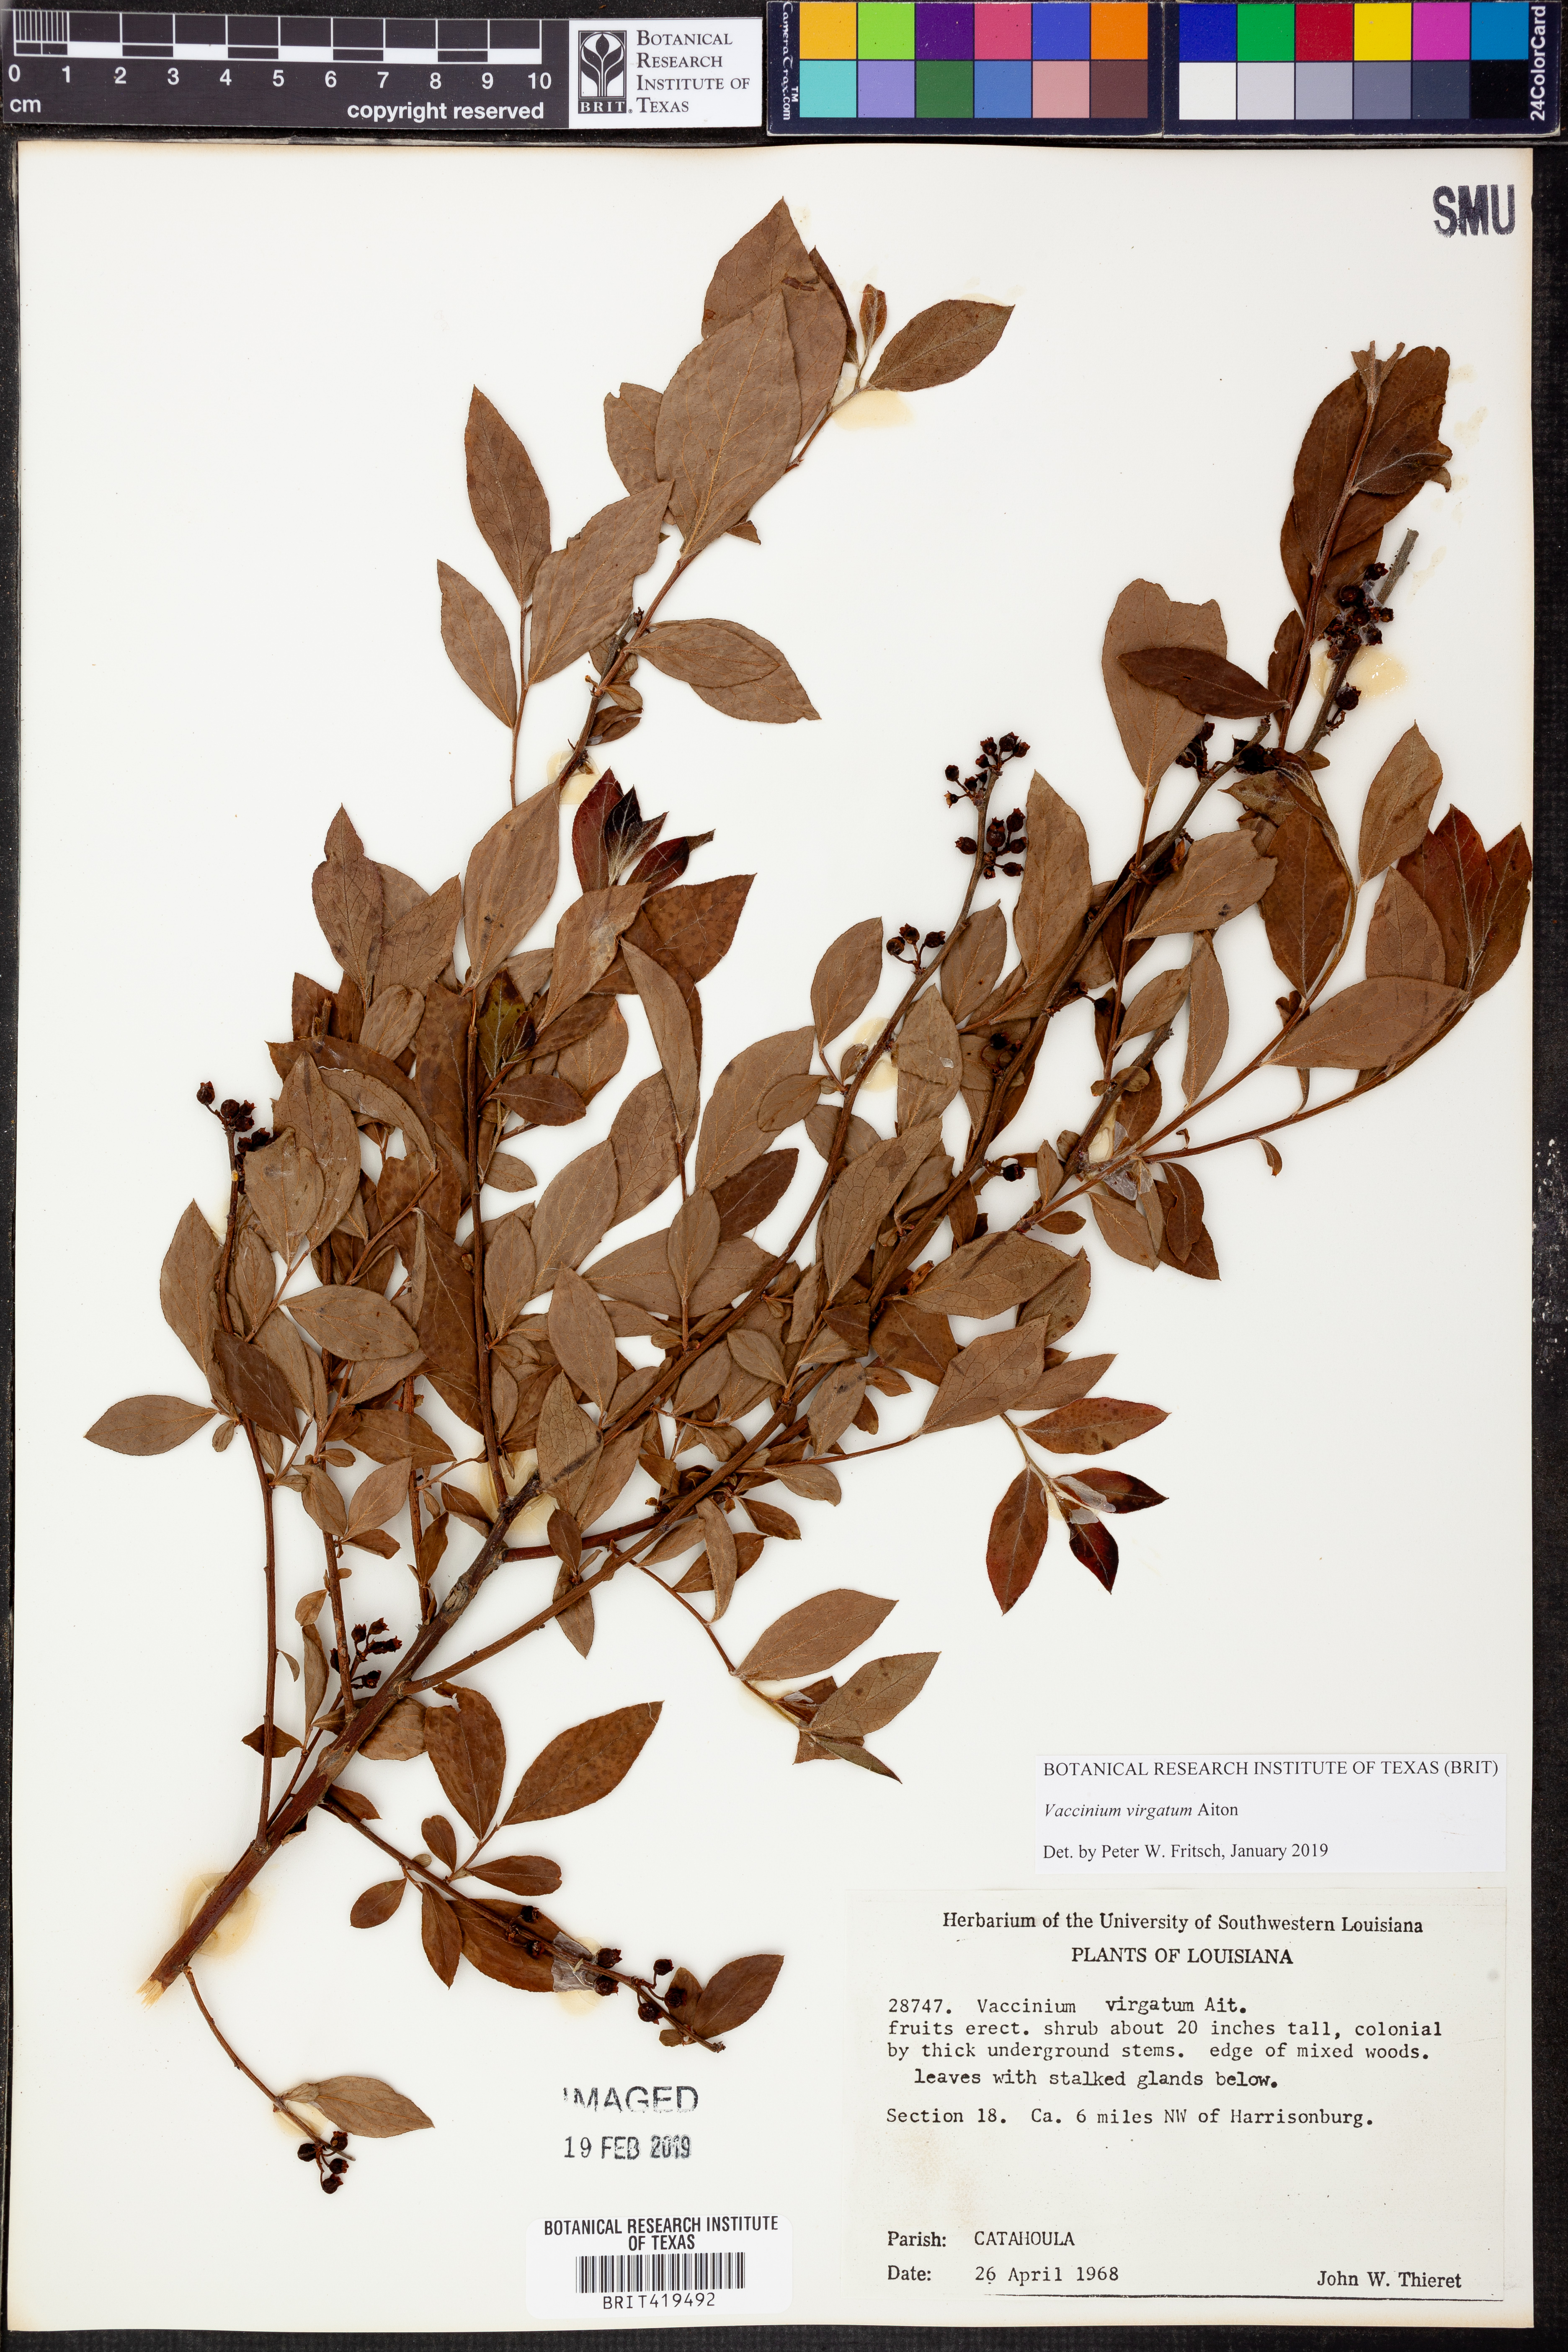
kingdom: Plantae
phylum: Tracheophyta
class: Magnoliopsida
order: Ericales
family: Ericaceae
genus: Vaccinium
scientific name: Vaccinium corymbosum
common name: Blueberry
